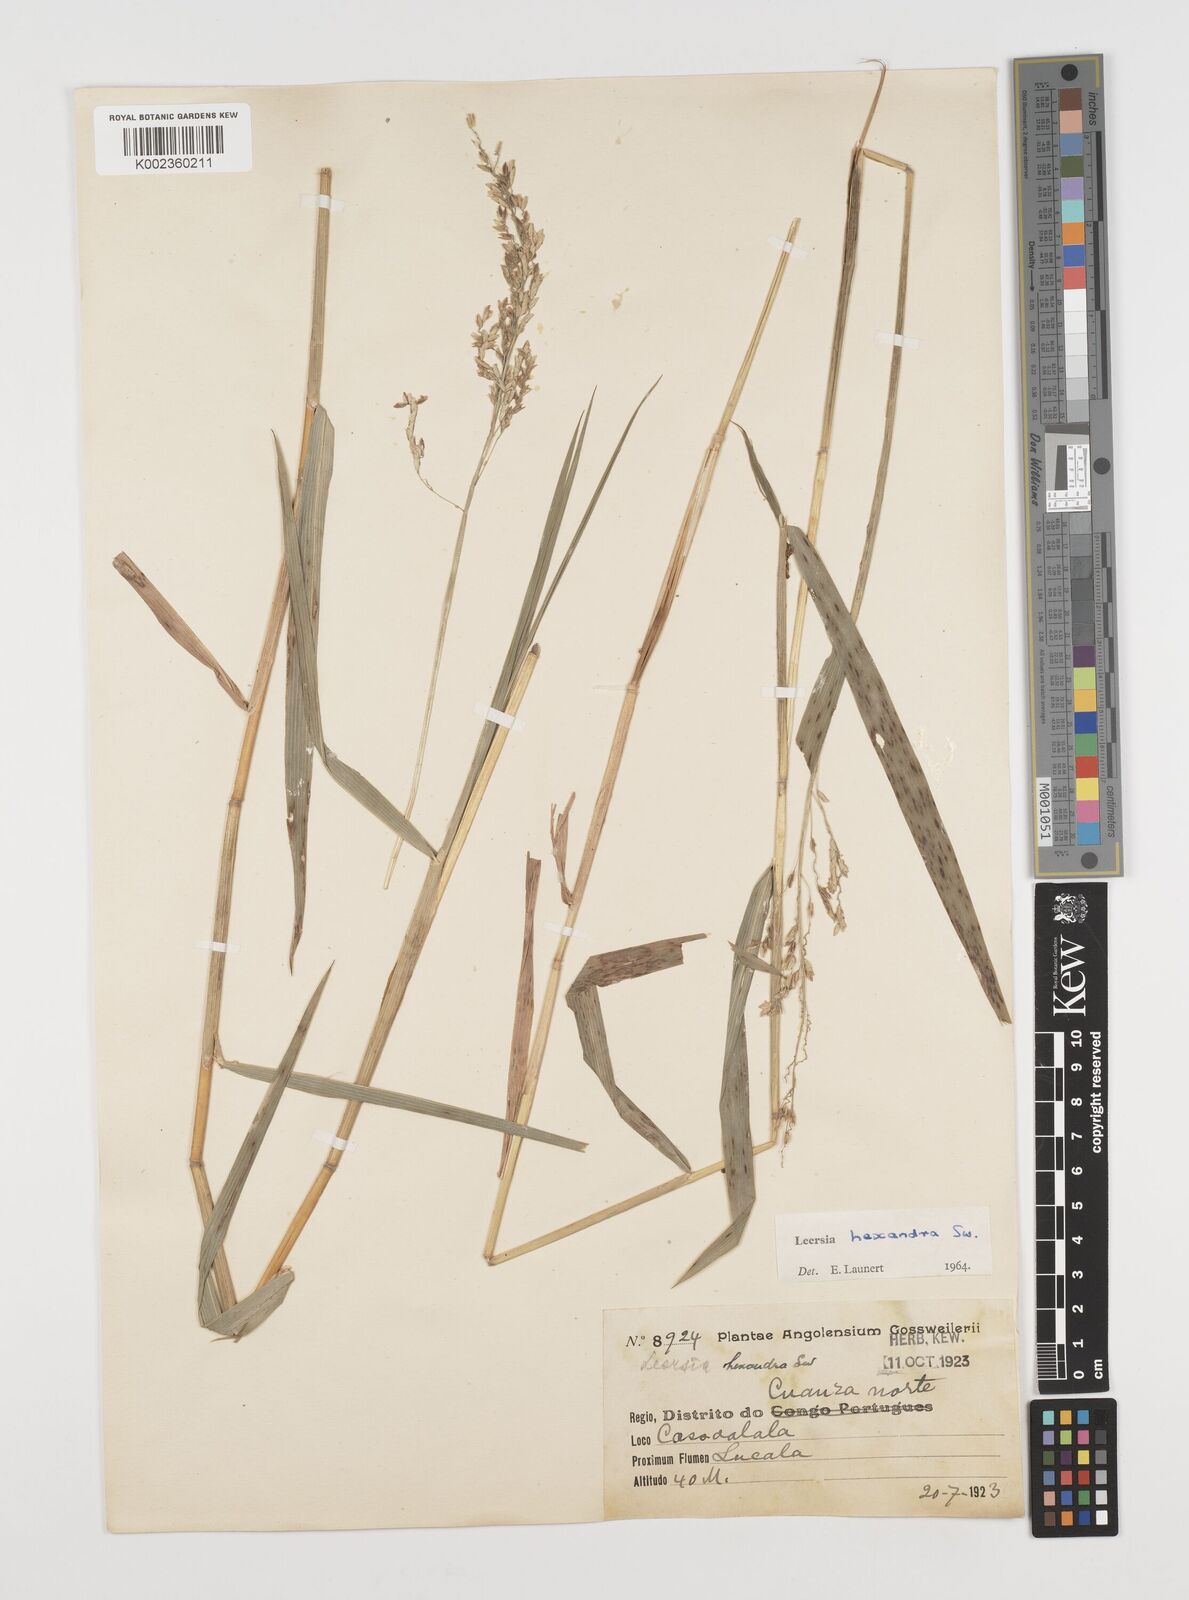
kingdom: Plantae
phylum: Tracheophyta
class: Liliopsida
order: Poales
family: Poaceae
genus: Leersia
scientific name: Leersia hexandra
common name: Southern cut grass
